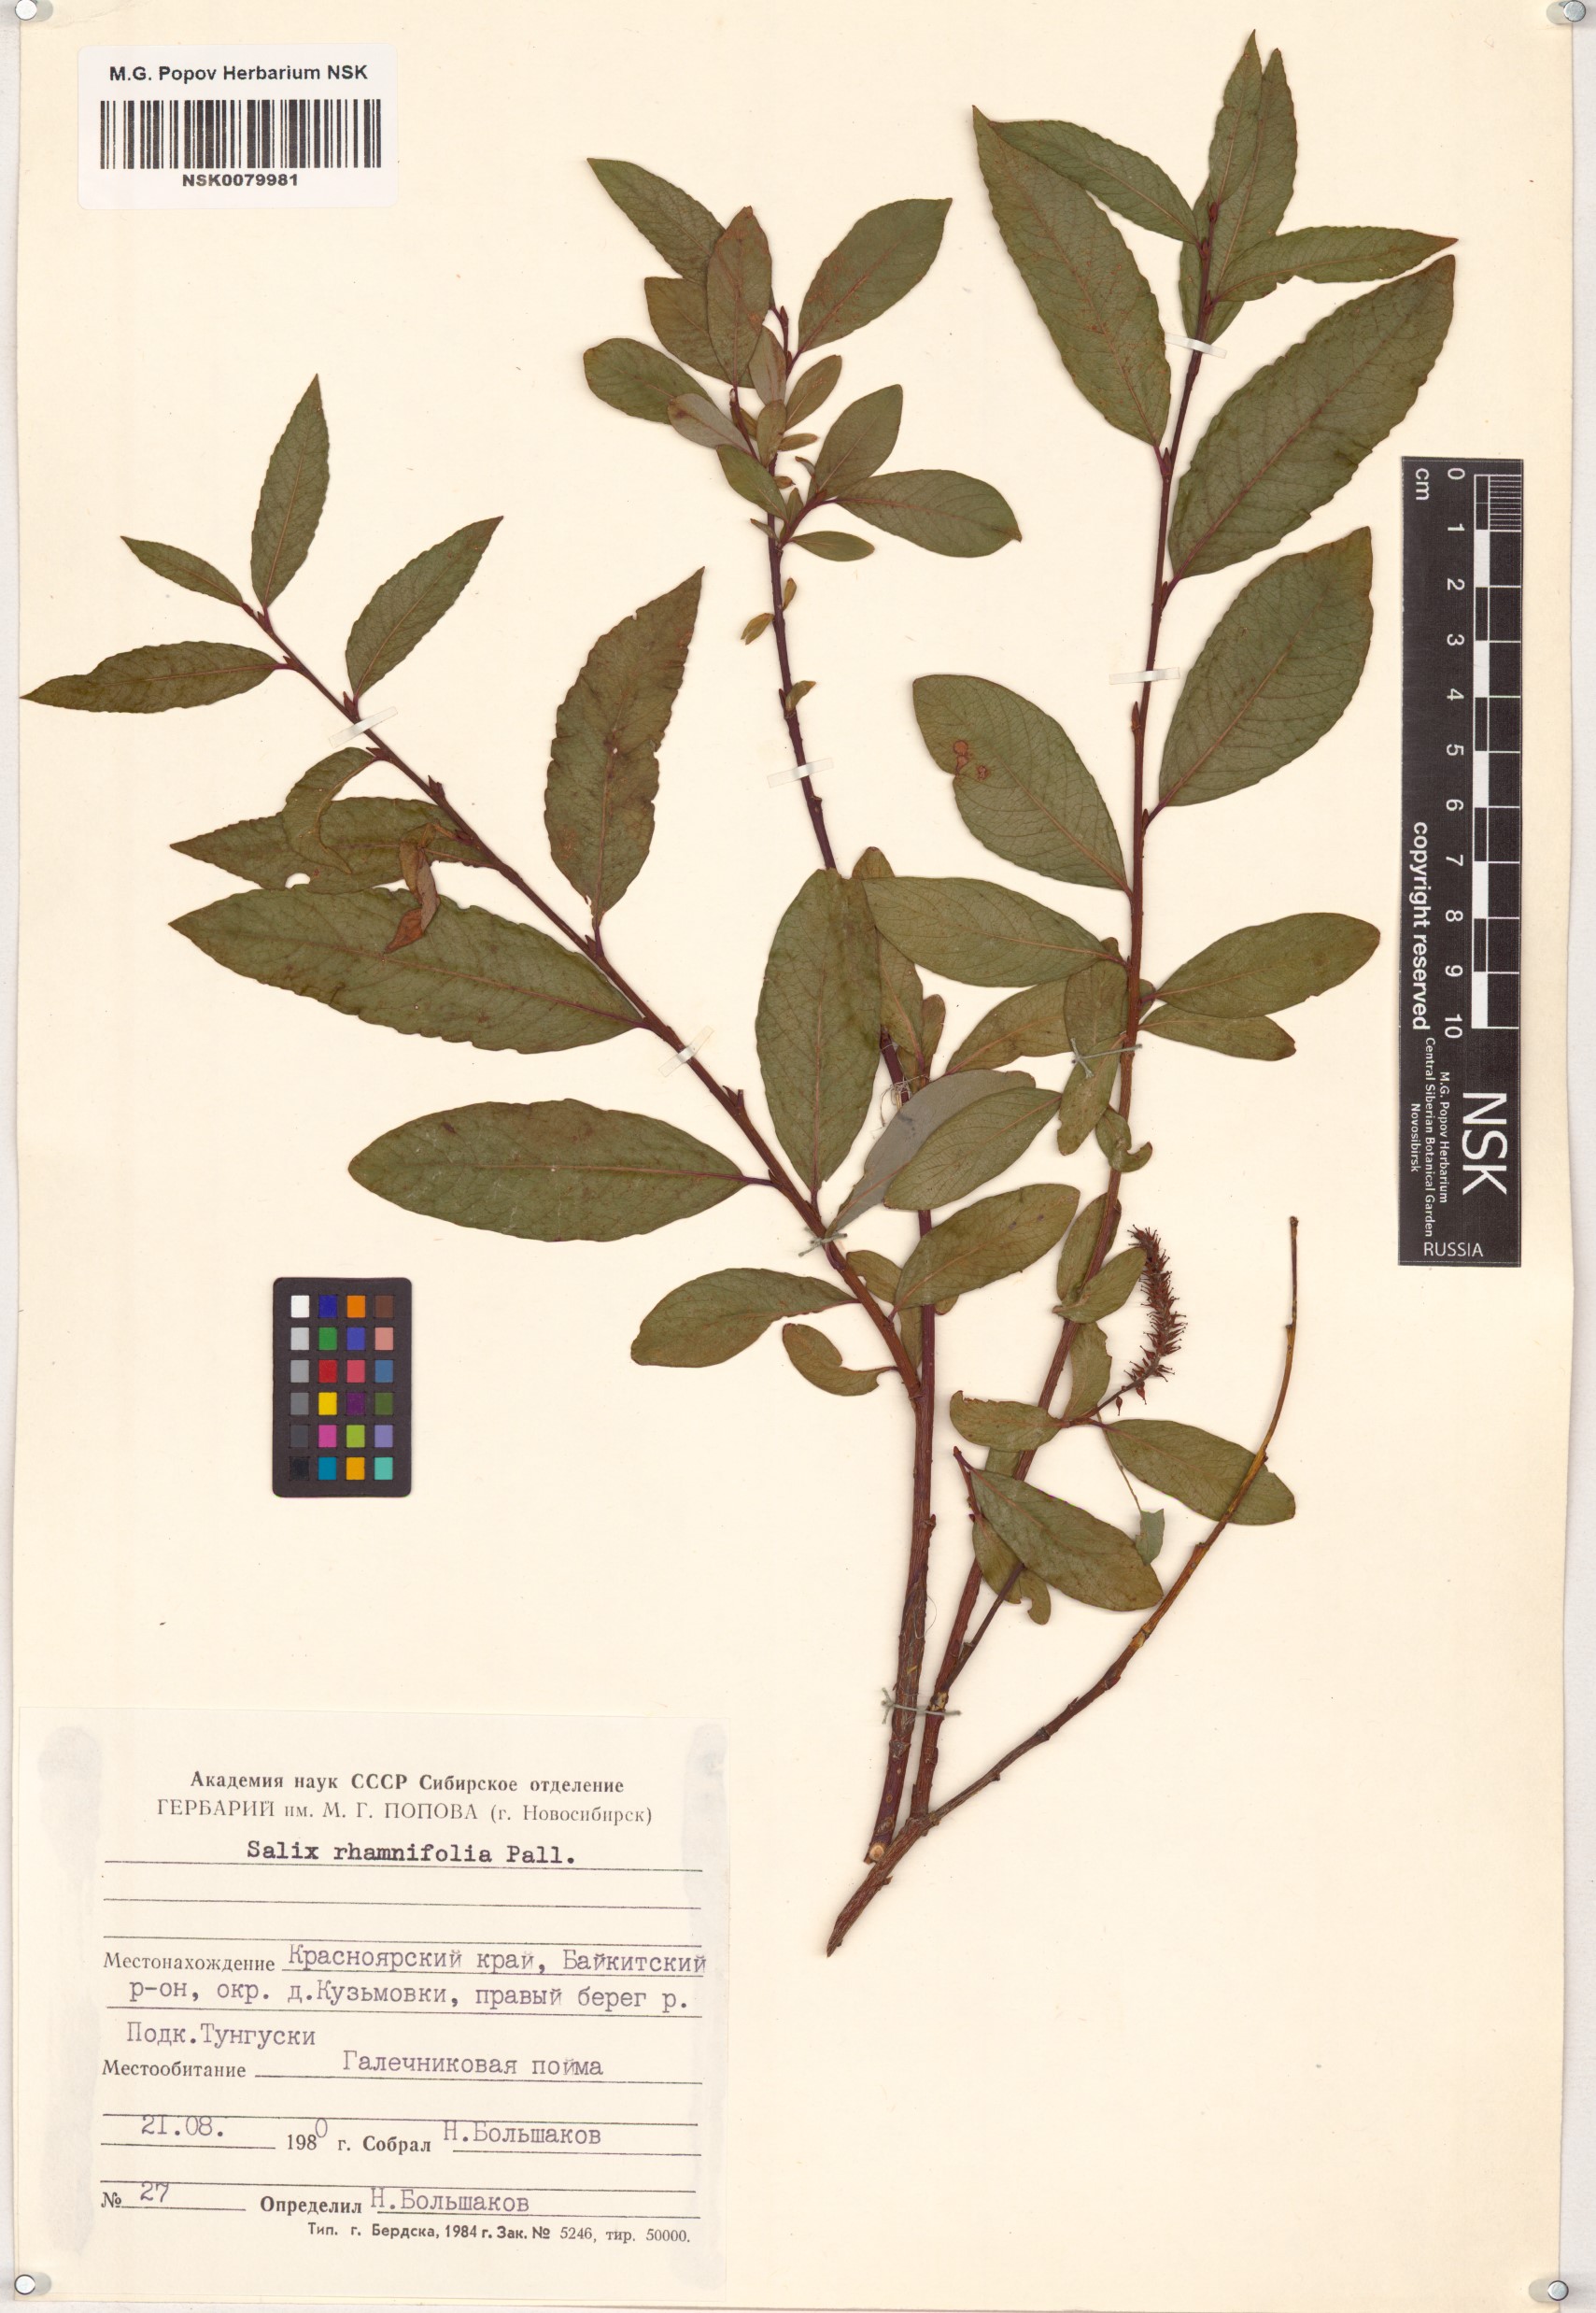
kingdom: Plantae
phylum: Tracheophyta
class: Magnoliopsida
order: Malpighiales
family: Salicaceae
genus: Salix
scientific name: Salix rhamnifolia
